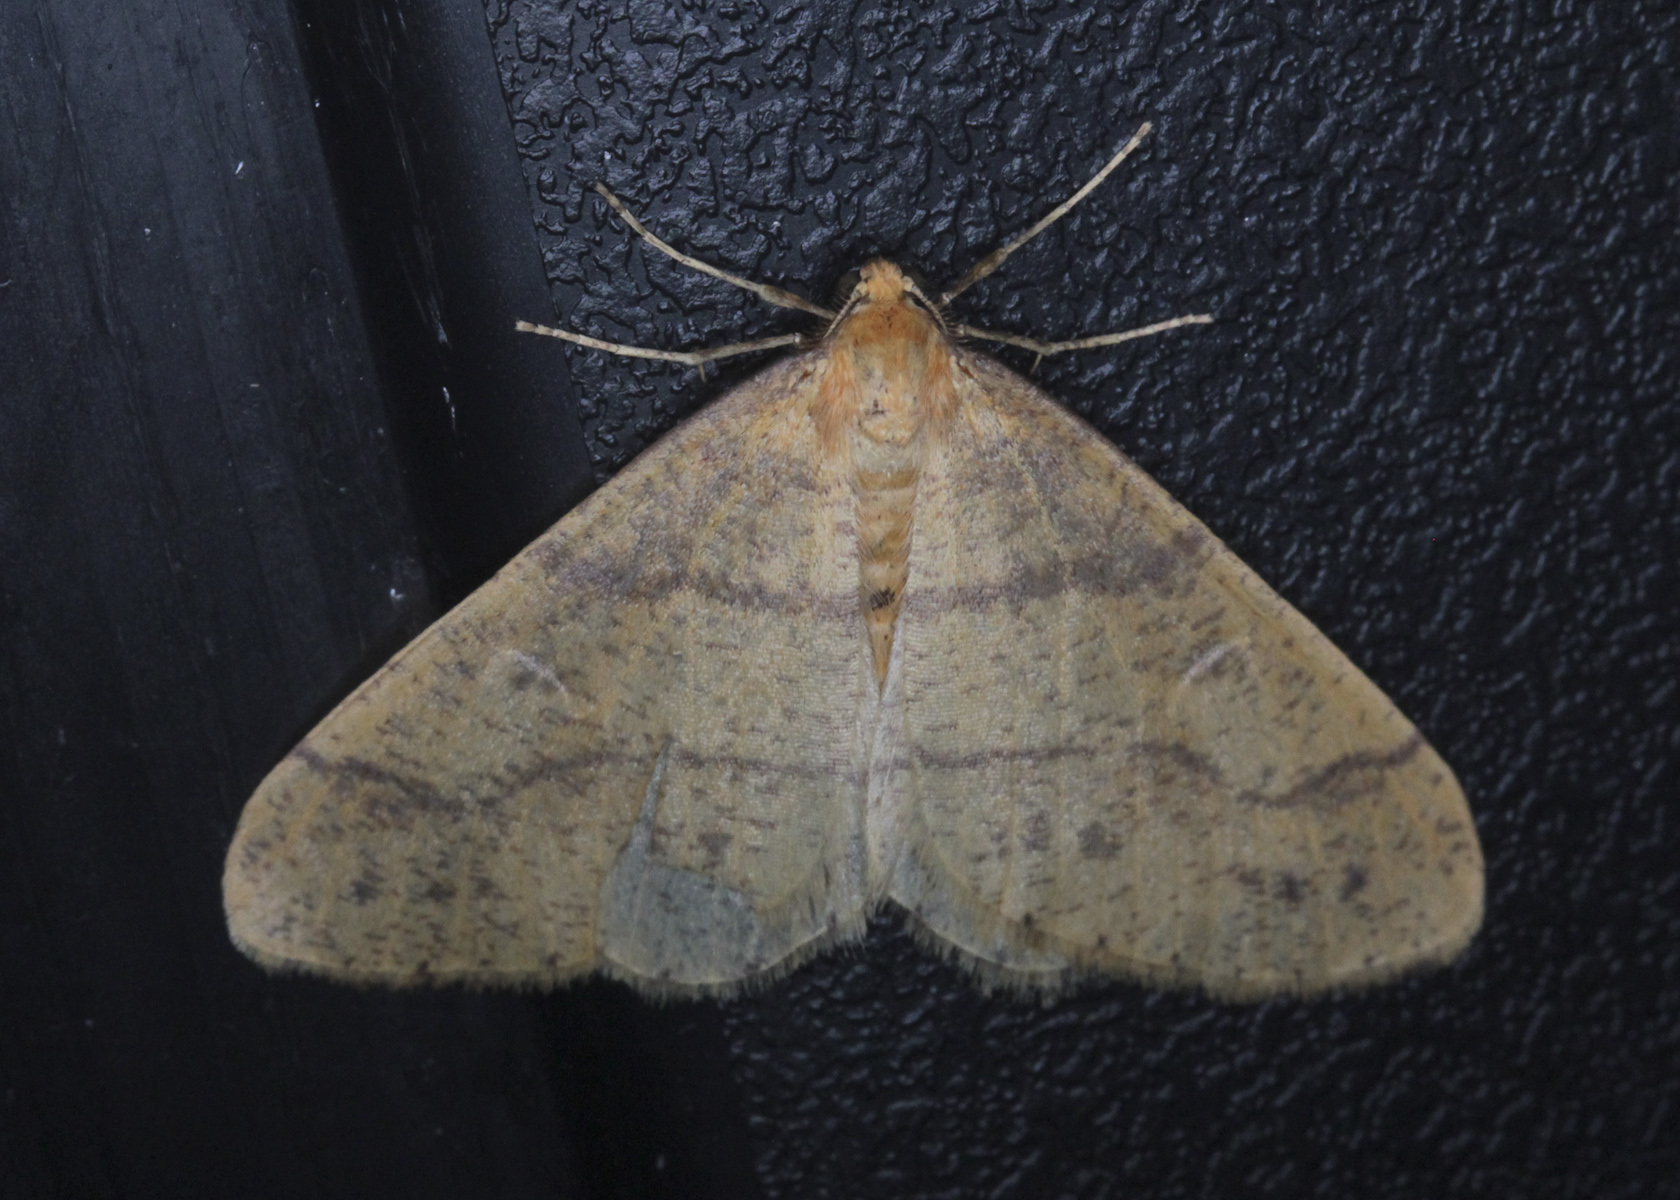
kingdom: Animalia
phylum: Arthropoda
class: Insecta
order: Lepidoptera
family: Geometridae
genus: Agriopis
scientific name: Agriopis aurantiaria
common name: Scarce umber
